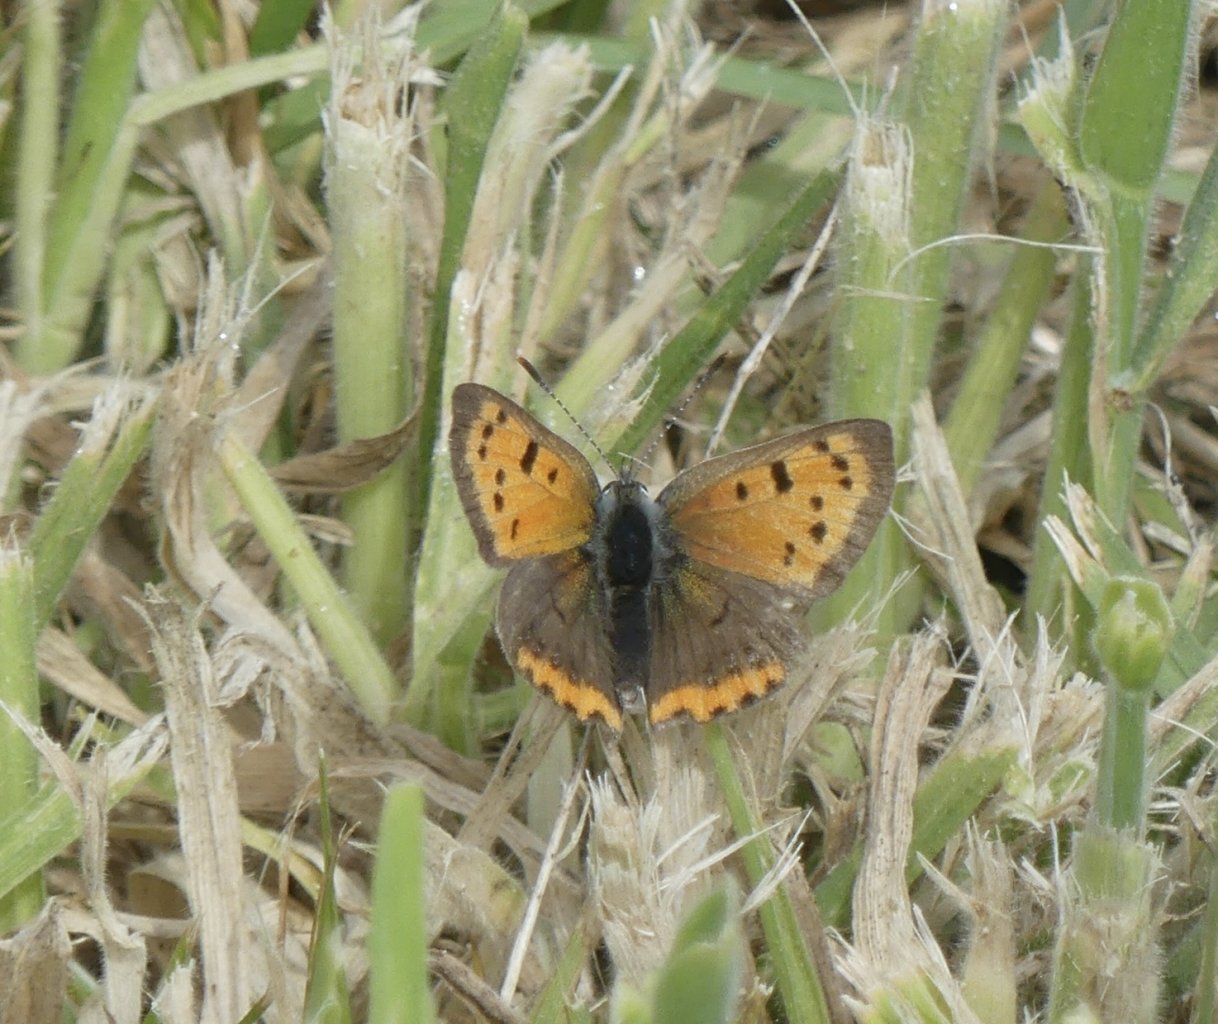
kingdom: Animalia
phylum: Arthropoda
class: Insecta
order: Lepidoptera
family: Lycaenidae
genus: Lycaena
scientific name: Lycaena phlaeas
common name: American Copper
